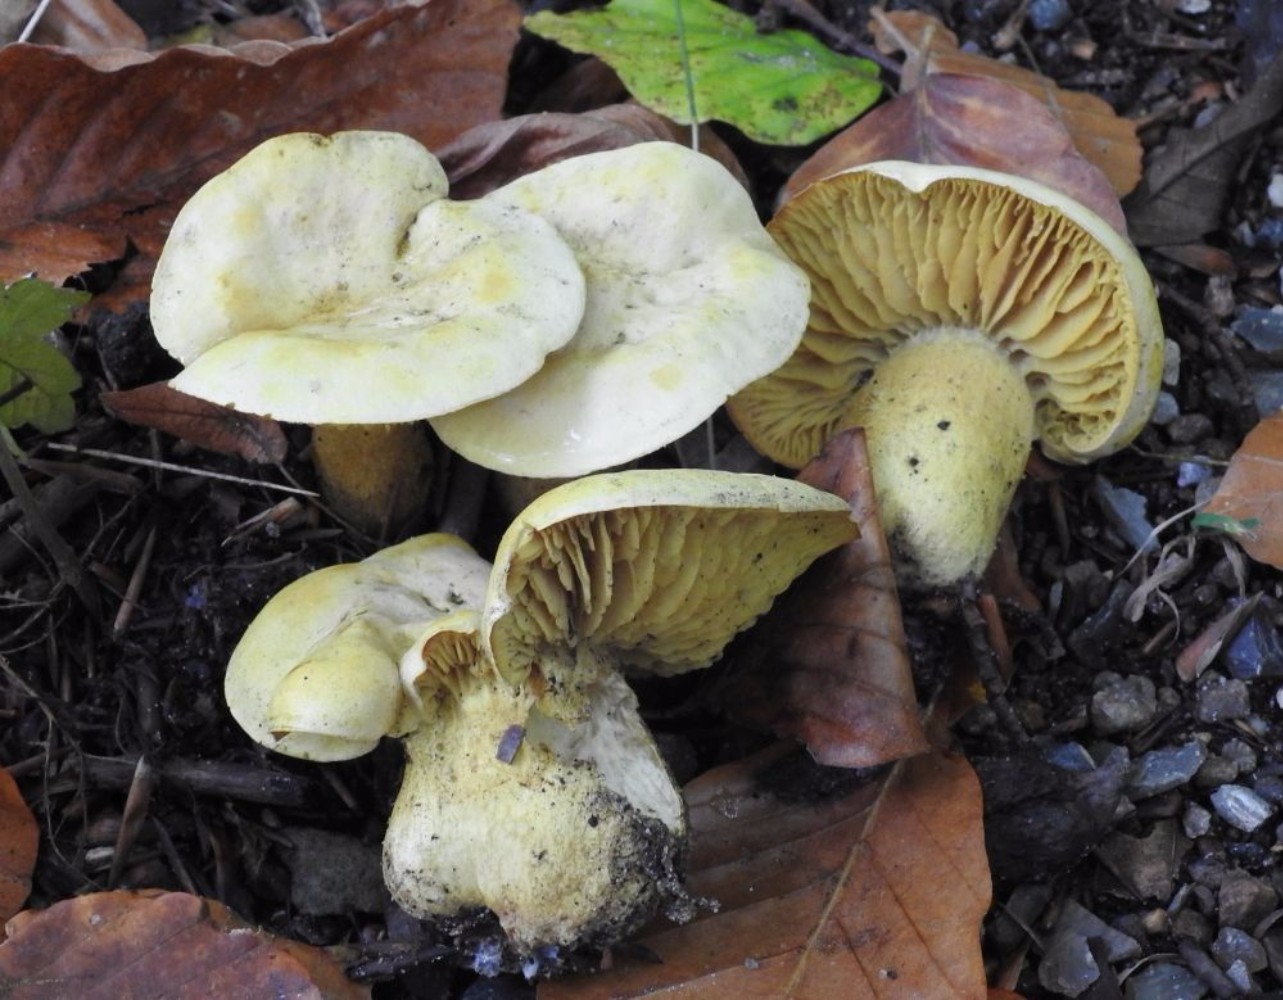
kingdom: Fungi
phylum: Basidiomycota
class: Agaricomycetes
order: Agaricales
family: Tricholomataceae
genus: Tricholoma
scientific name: Tricholoma sulphureum
